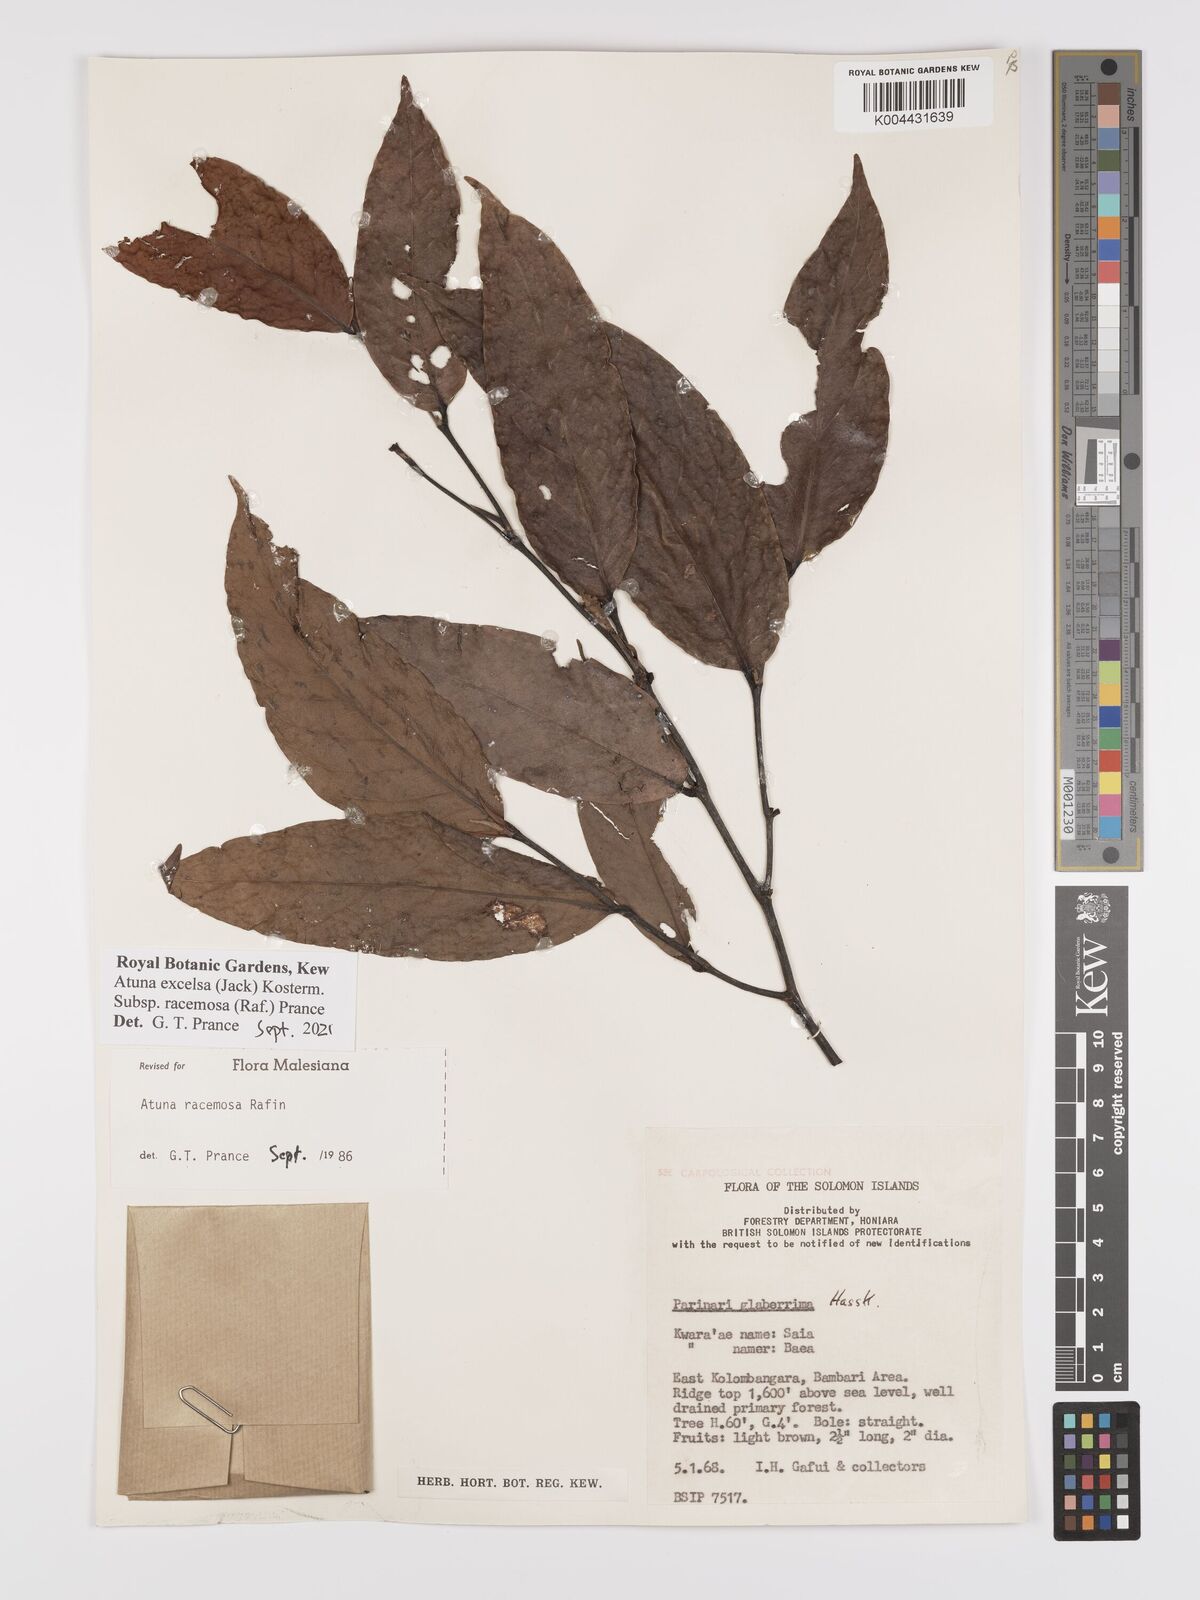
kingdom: Plantae
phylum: Tracheophyta
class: Magnoliopsida
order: Malpighiales
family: Chrysobalanaceae
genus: Atuna
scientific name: Atuna
